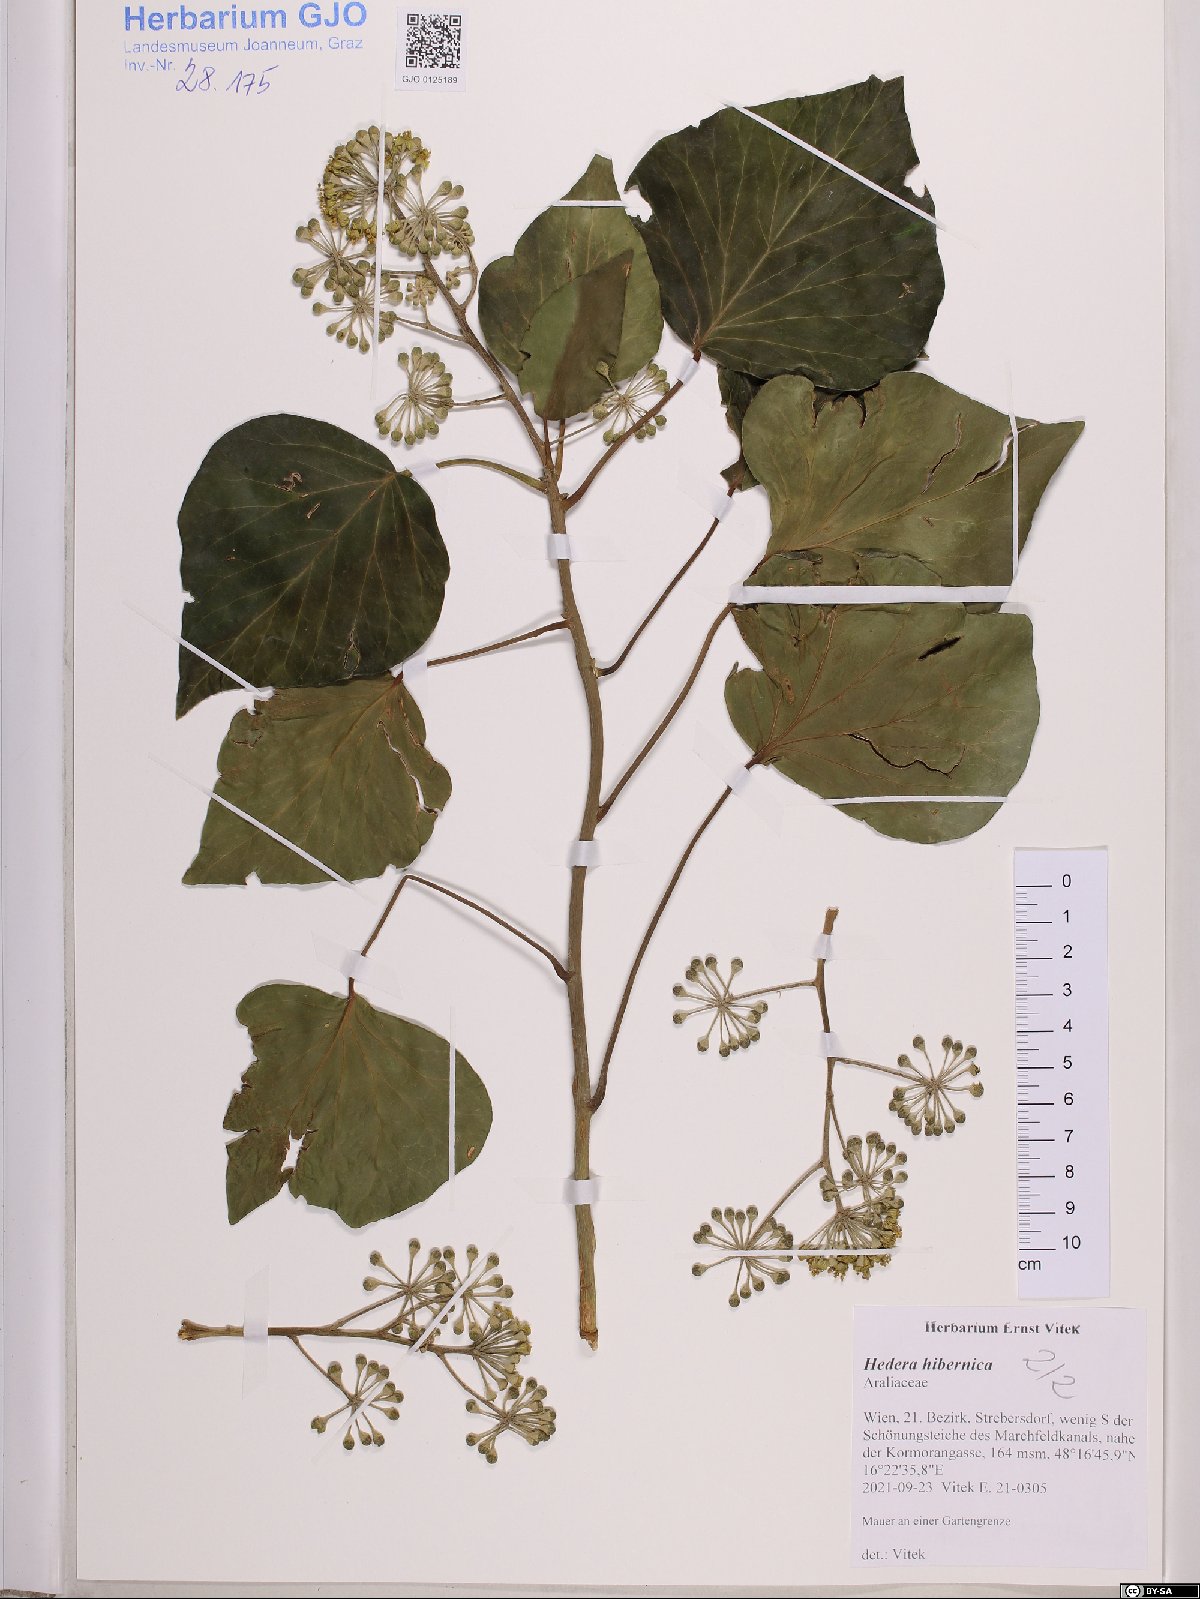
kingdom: Plantae
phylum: Tracheophyta
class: Magnoliopsida
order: Apiales
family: Araliaceae
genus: Hedera
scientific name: Hedera hibernica
